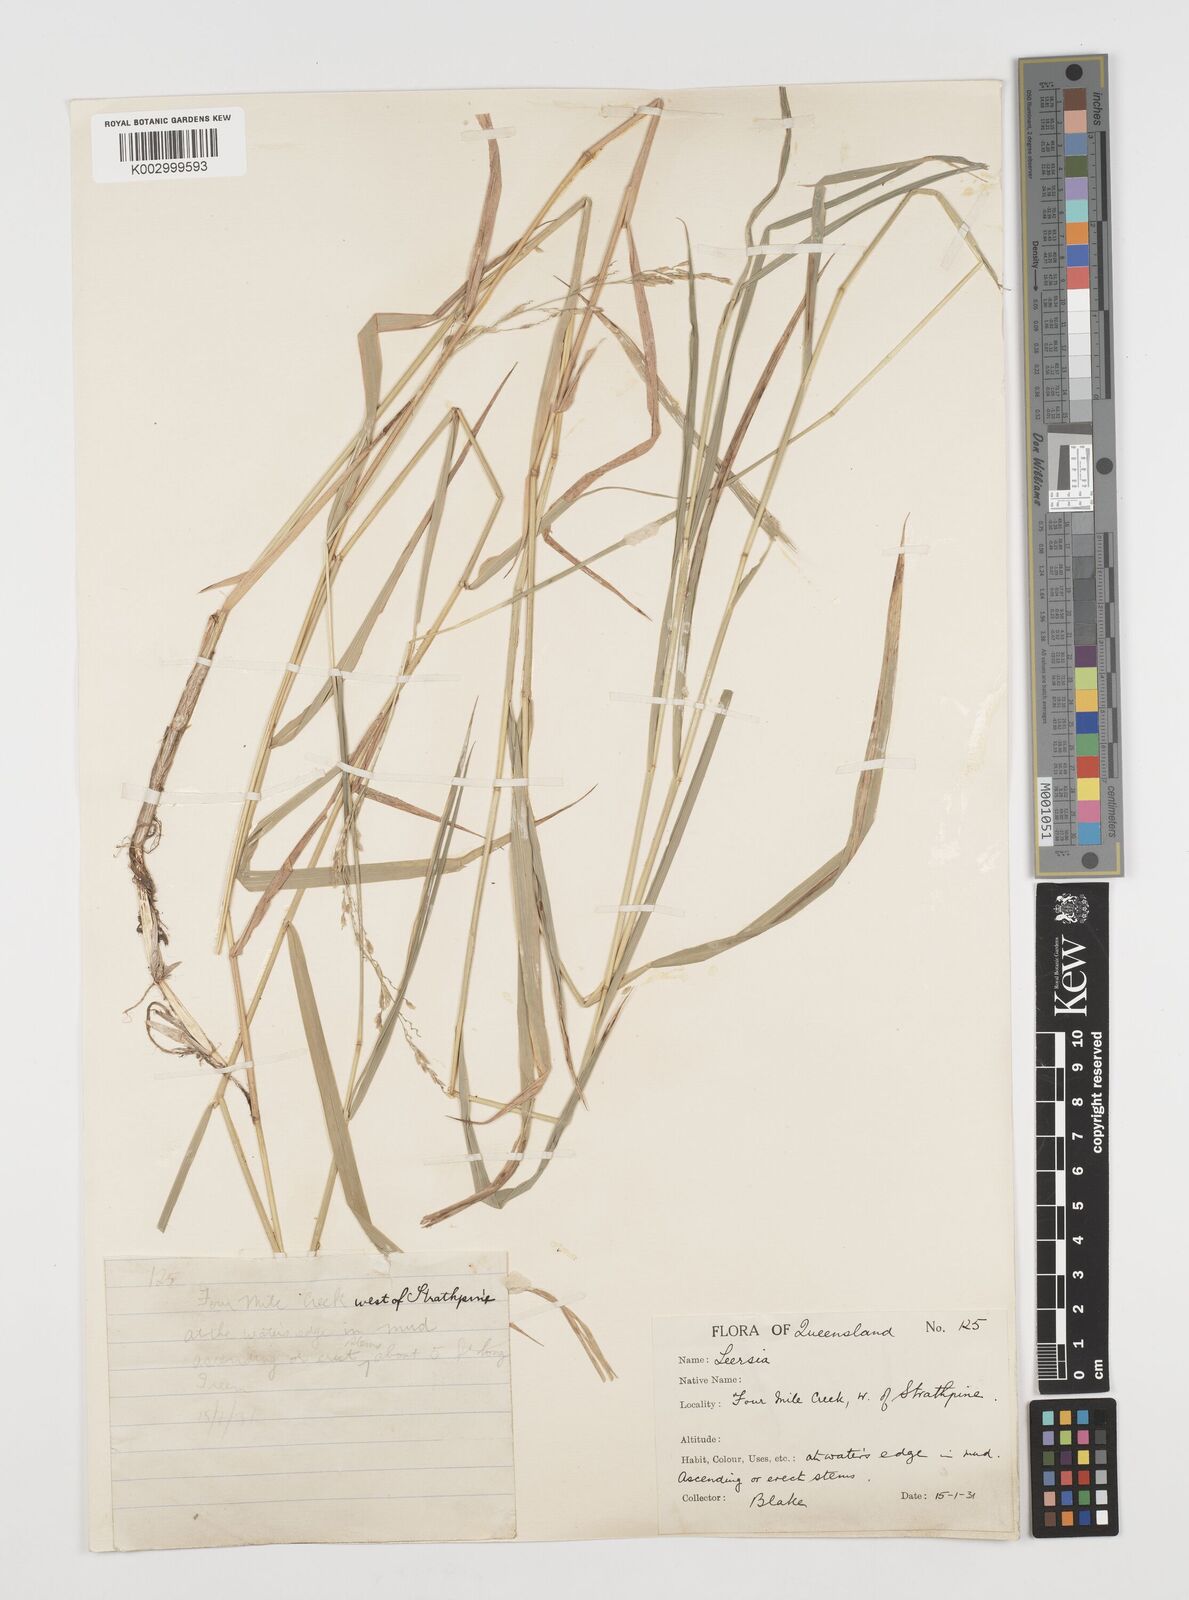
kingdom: Plantae
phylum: Tracheophyta
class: Liliopsida
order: Poales
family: Poaceae
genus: Leersia
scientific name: Leersia hexandra
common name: Southern cut grass
